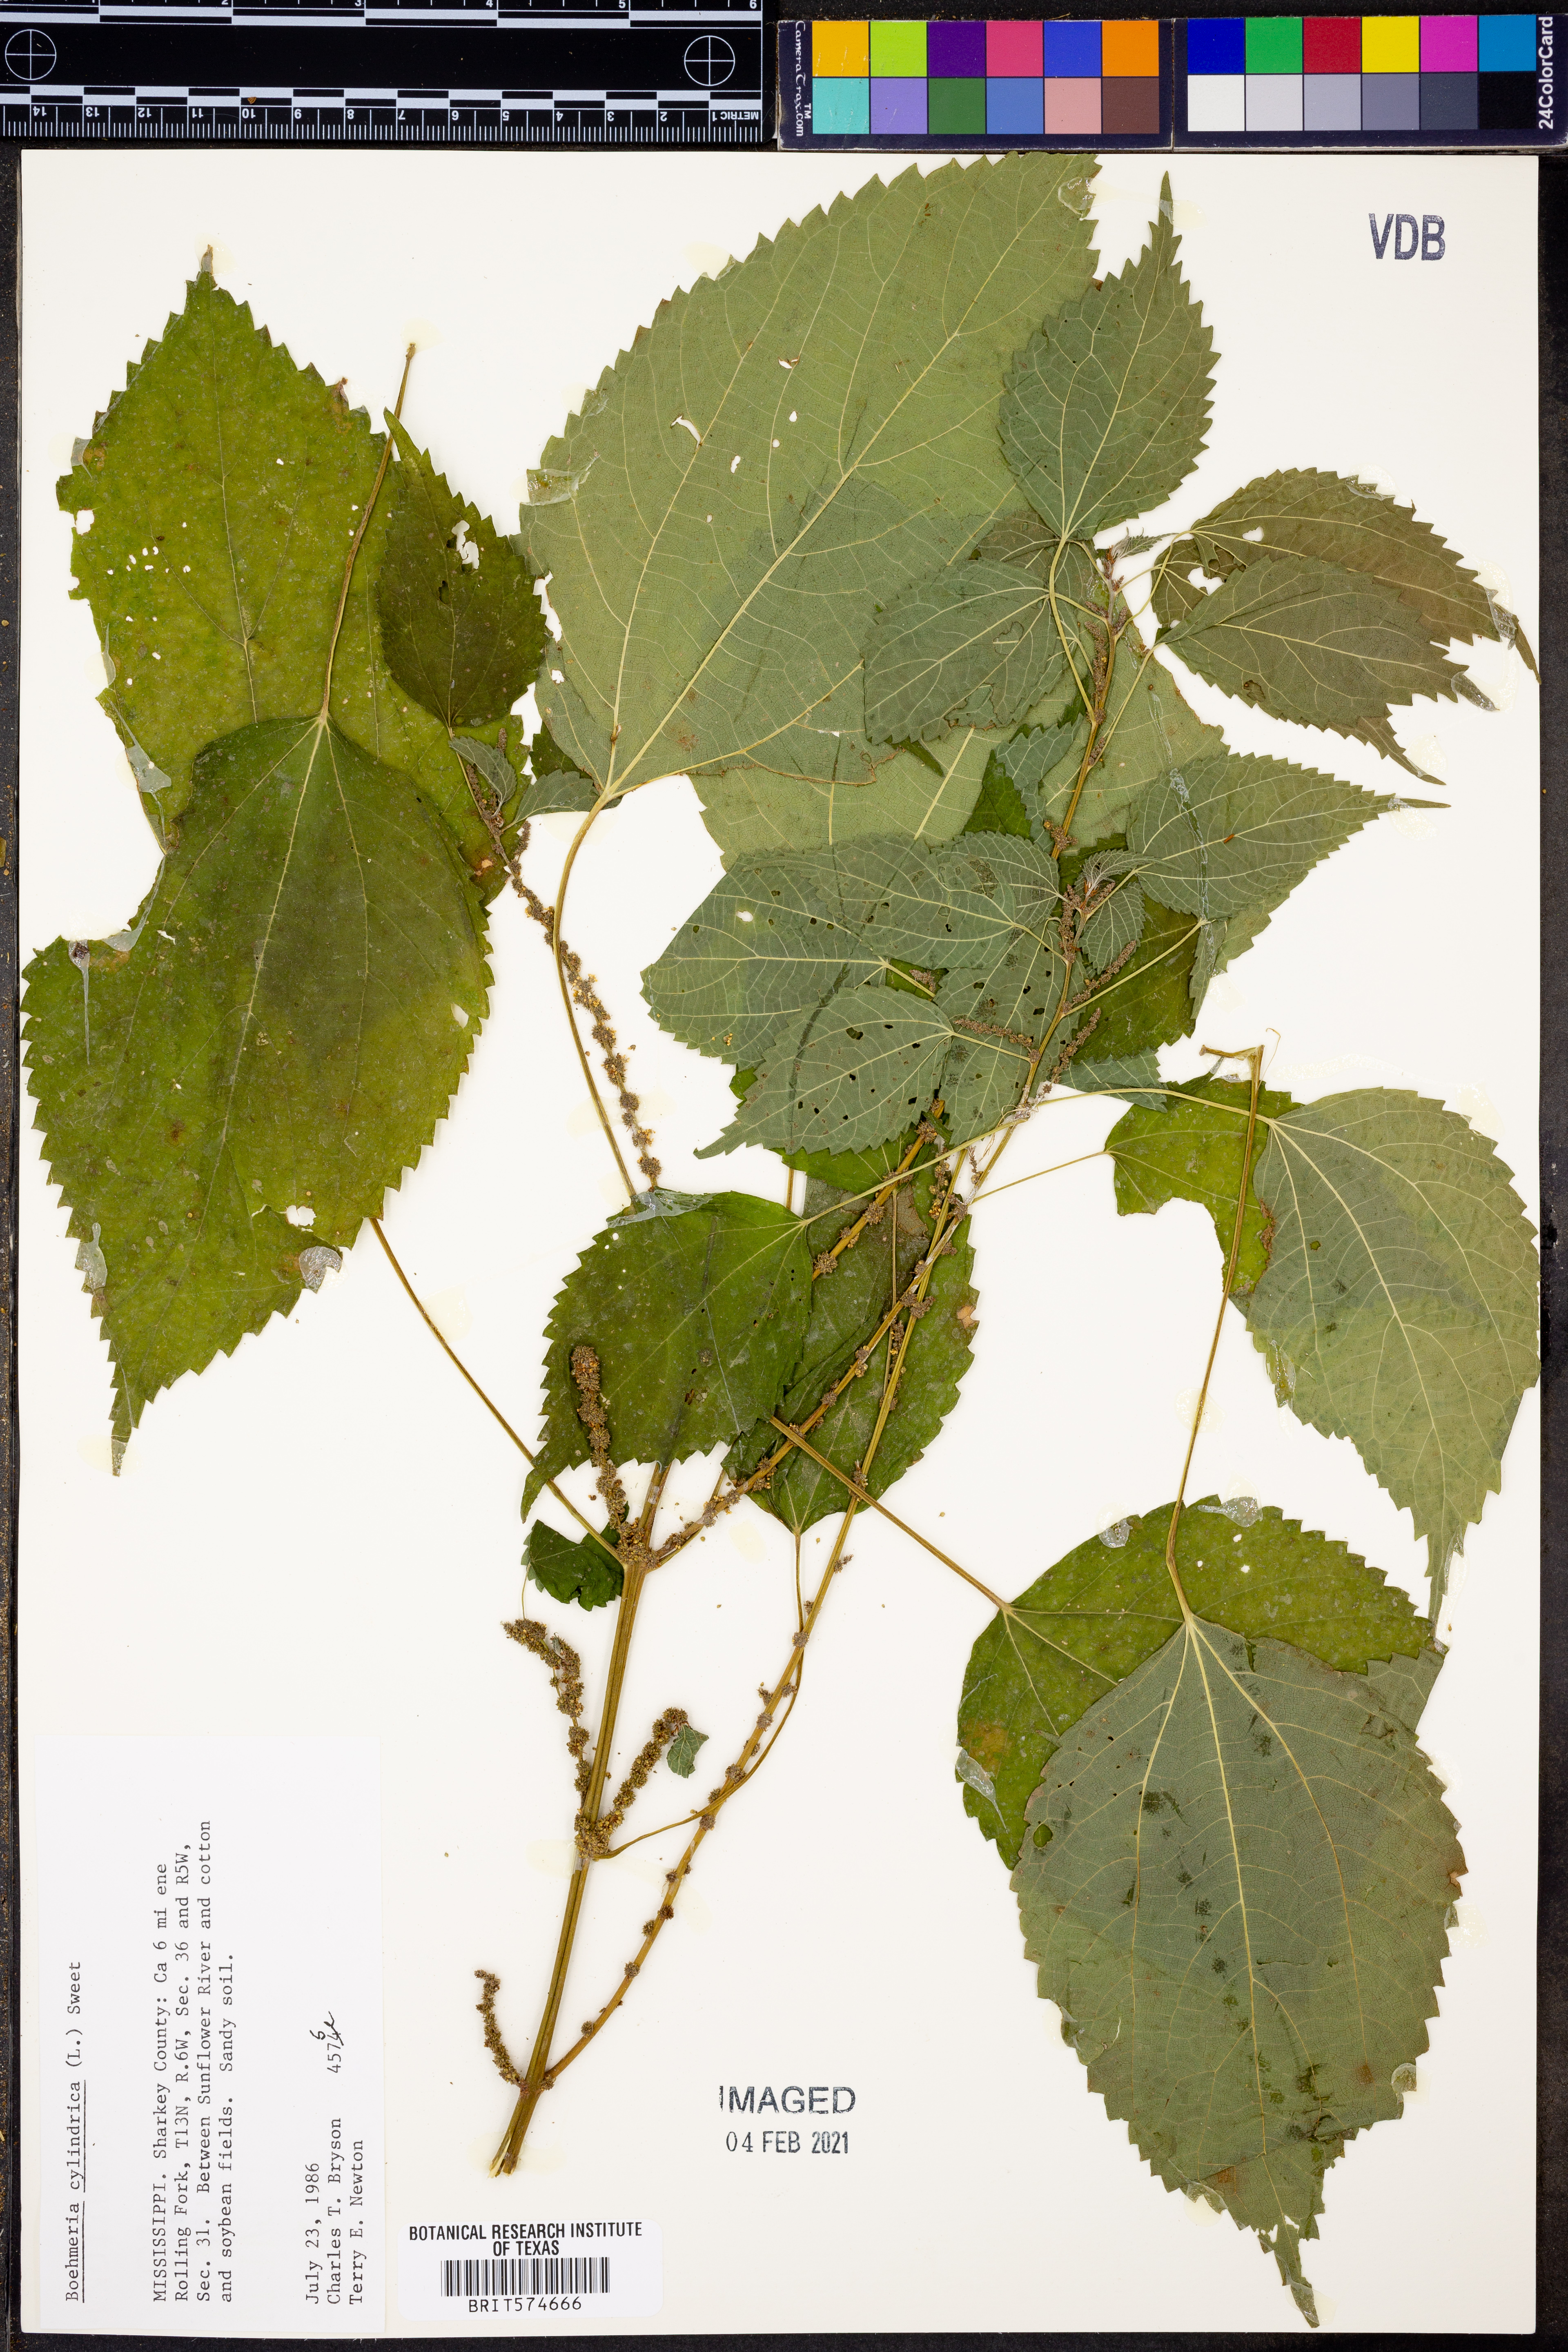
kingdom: Plantae
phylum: Tracheophyta
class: Magnoliopsida
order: Rosales
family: Urticaceae
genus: Boehmeria
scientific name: Boehmeria cylindrica
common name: Bog-hemp
